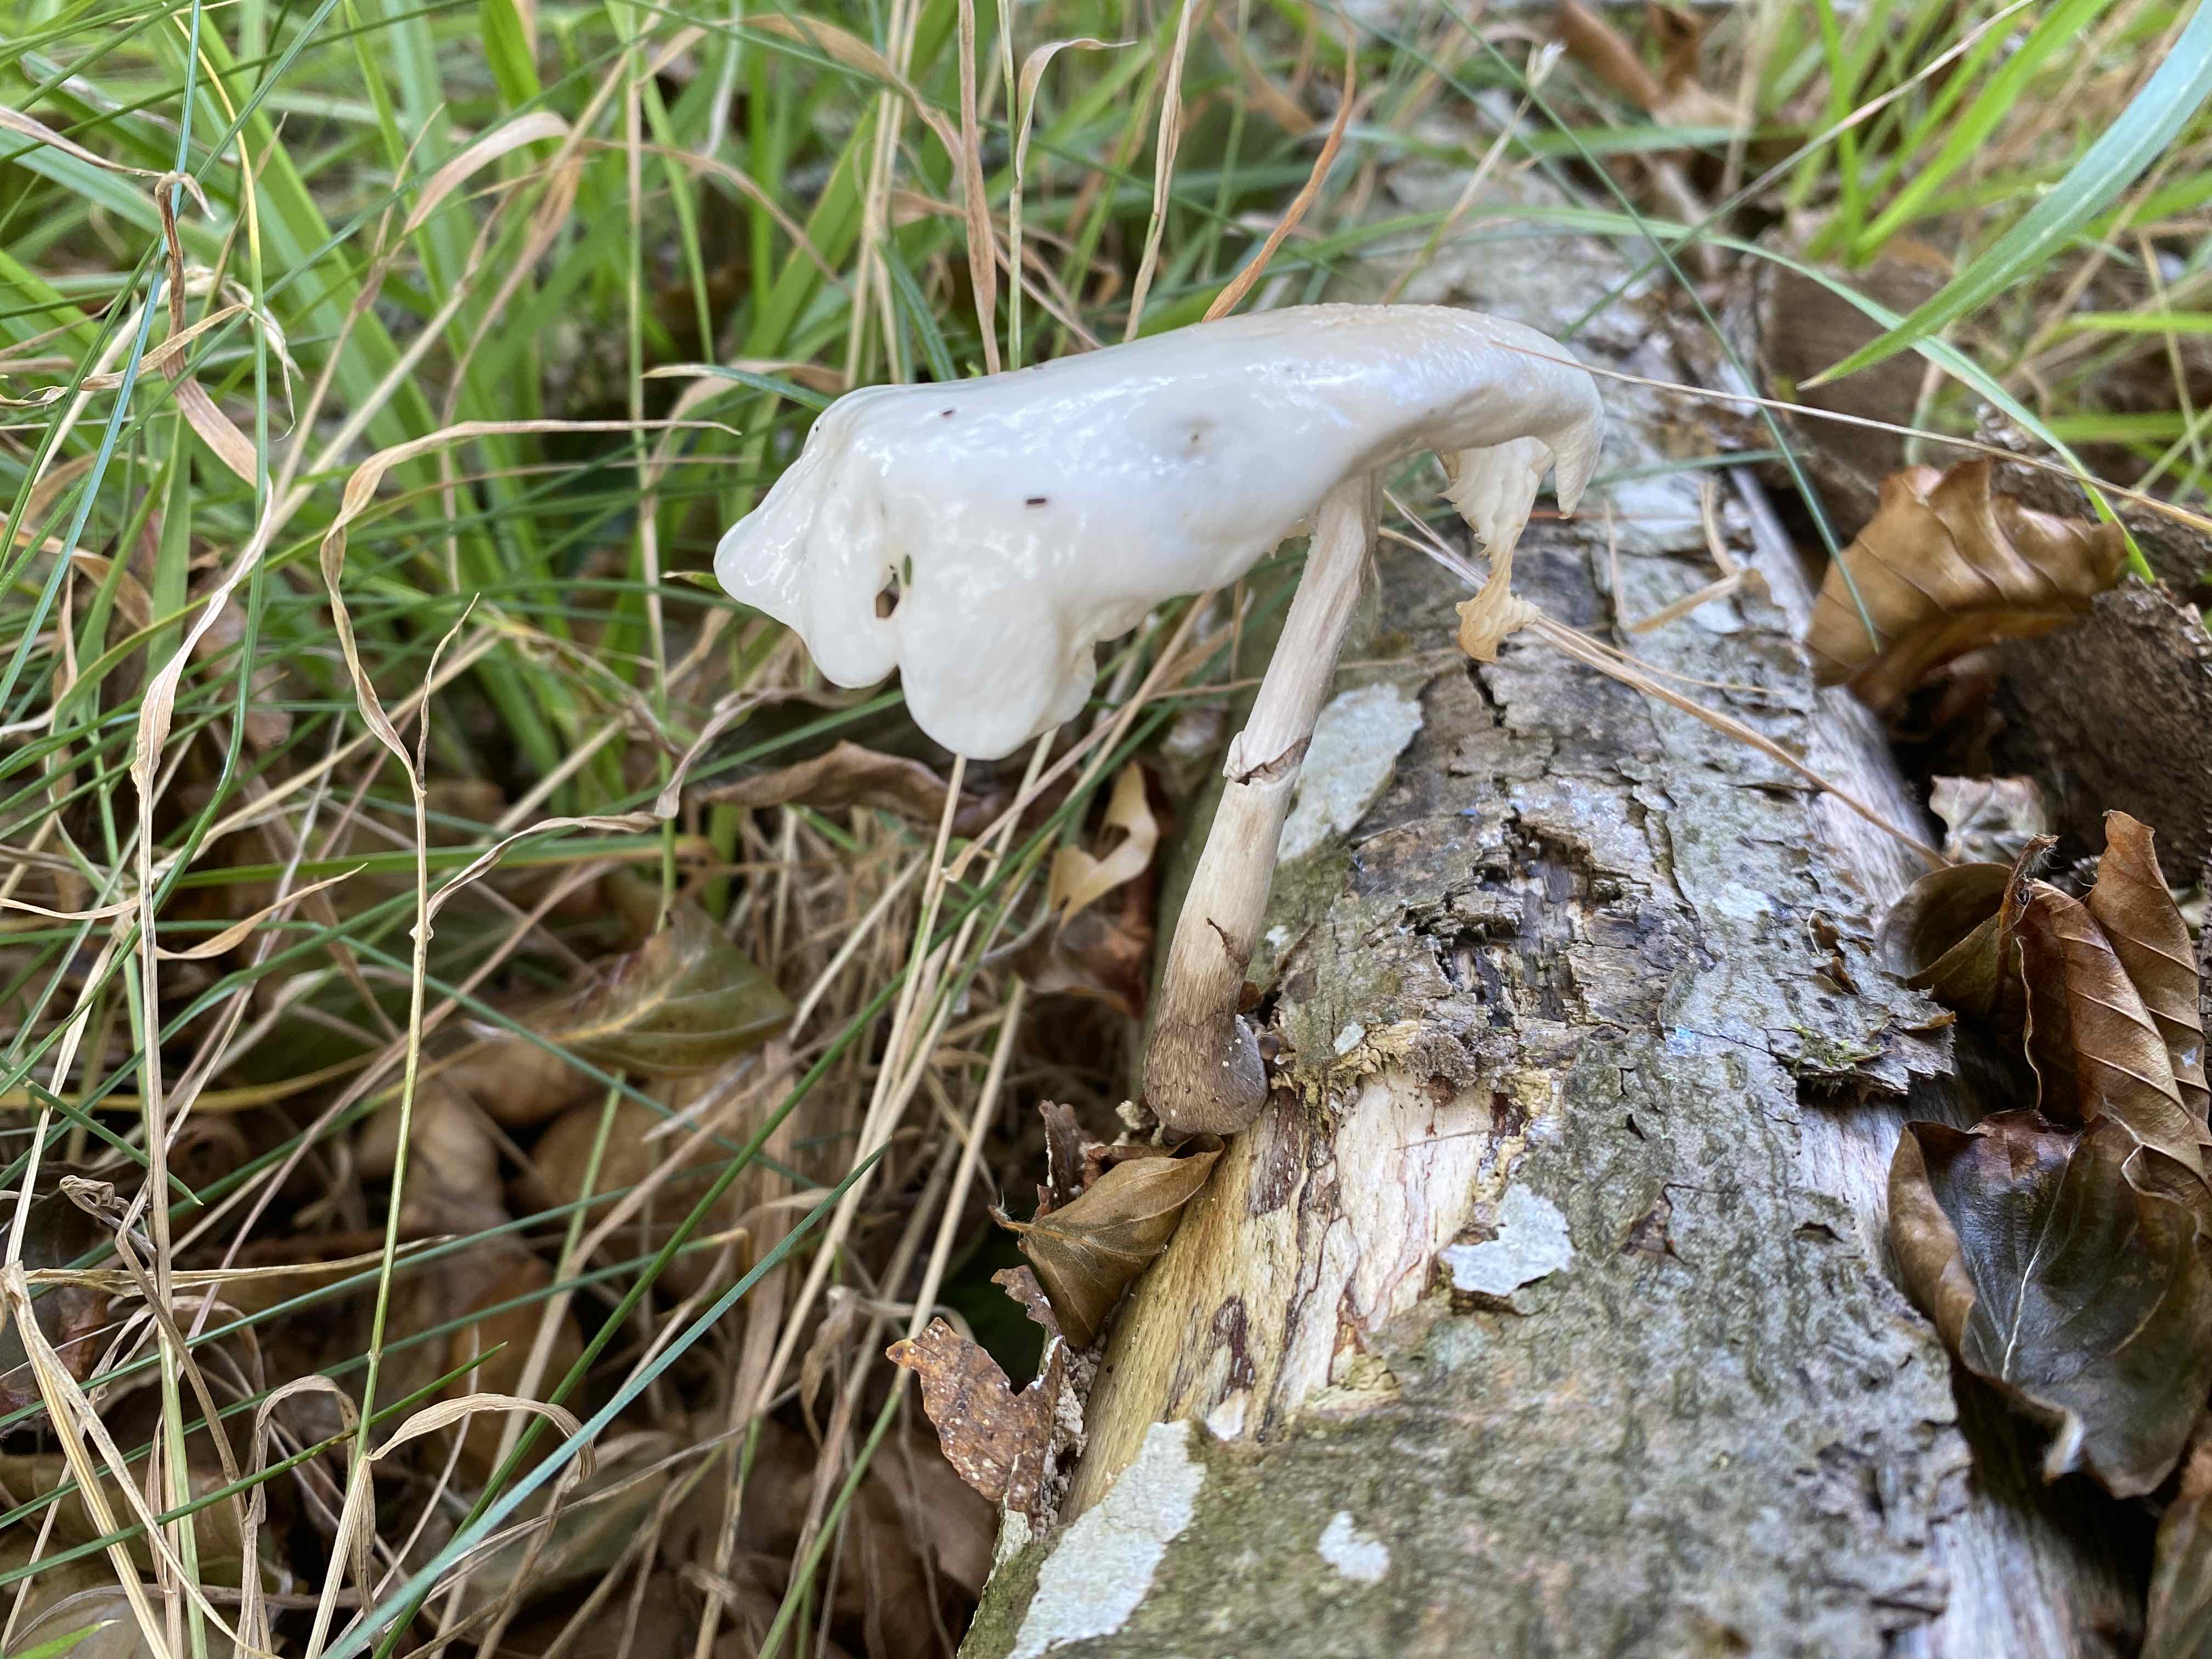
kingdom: Fungi
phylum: Basidiomycota
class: Agaricomycetes
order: Agaricales
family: Physalacriaceae
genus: Mucidula
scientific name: Mucidula mucida
